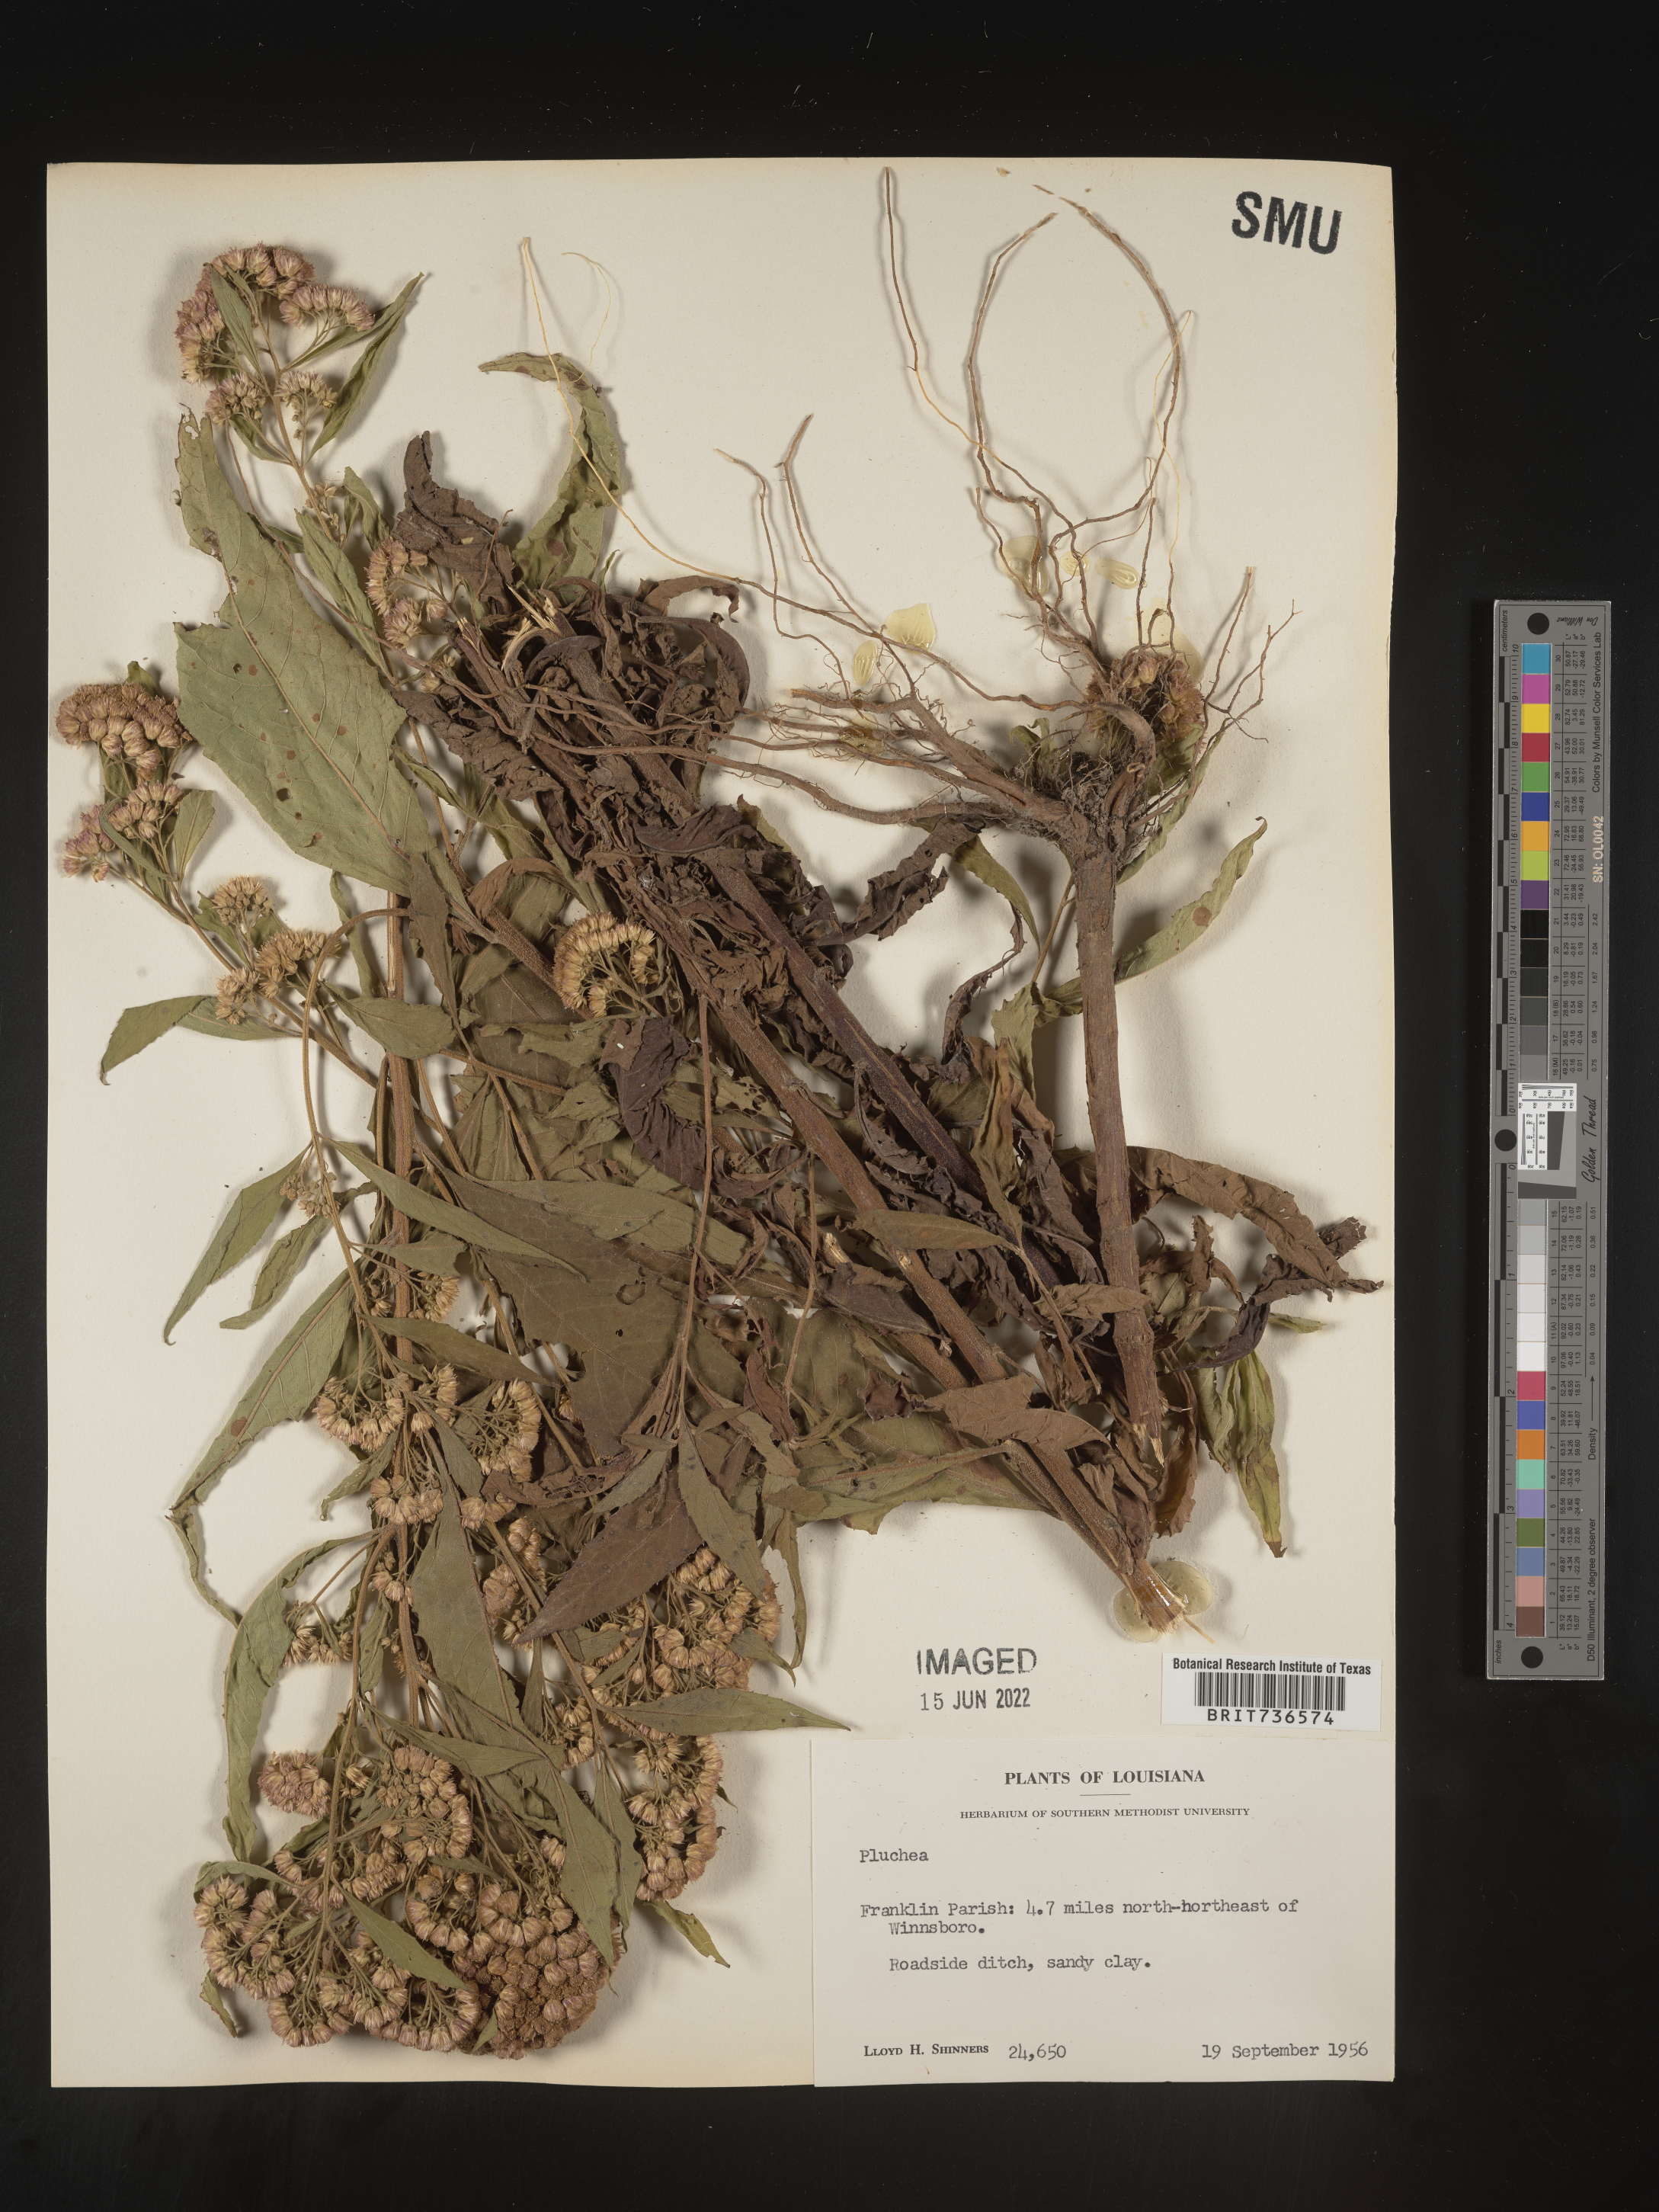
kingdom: Plantae
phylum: Tracheophyta
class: Magnoliopsida
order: Asterales
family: Asteraceae
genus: Pluchea
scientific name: Pluchea camphorata
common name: Camphor pluchea
